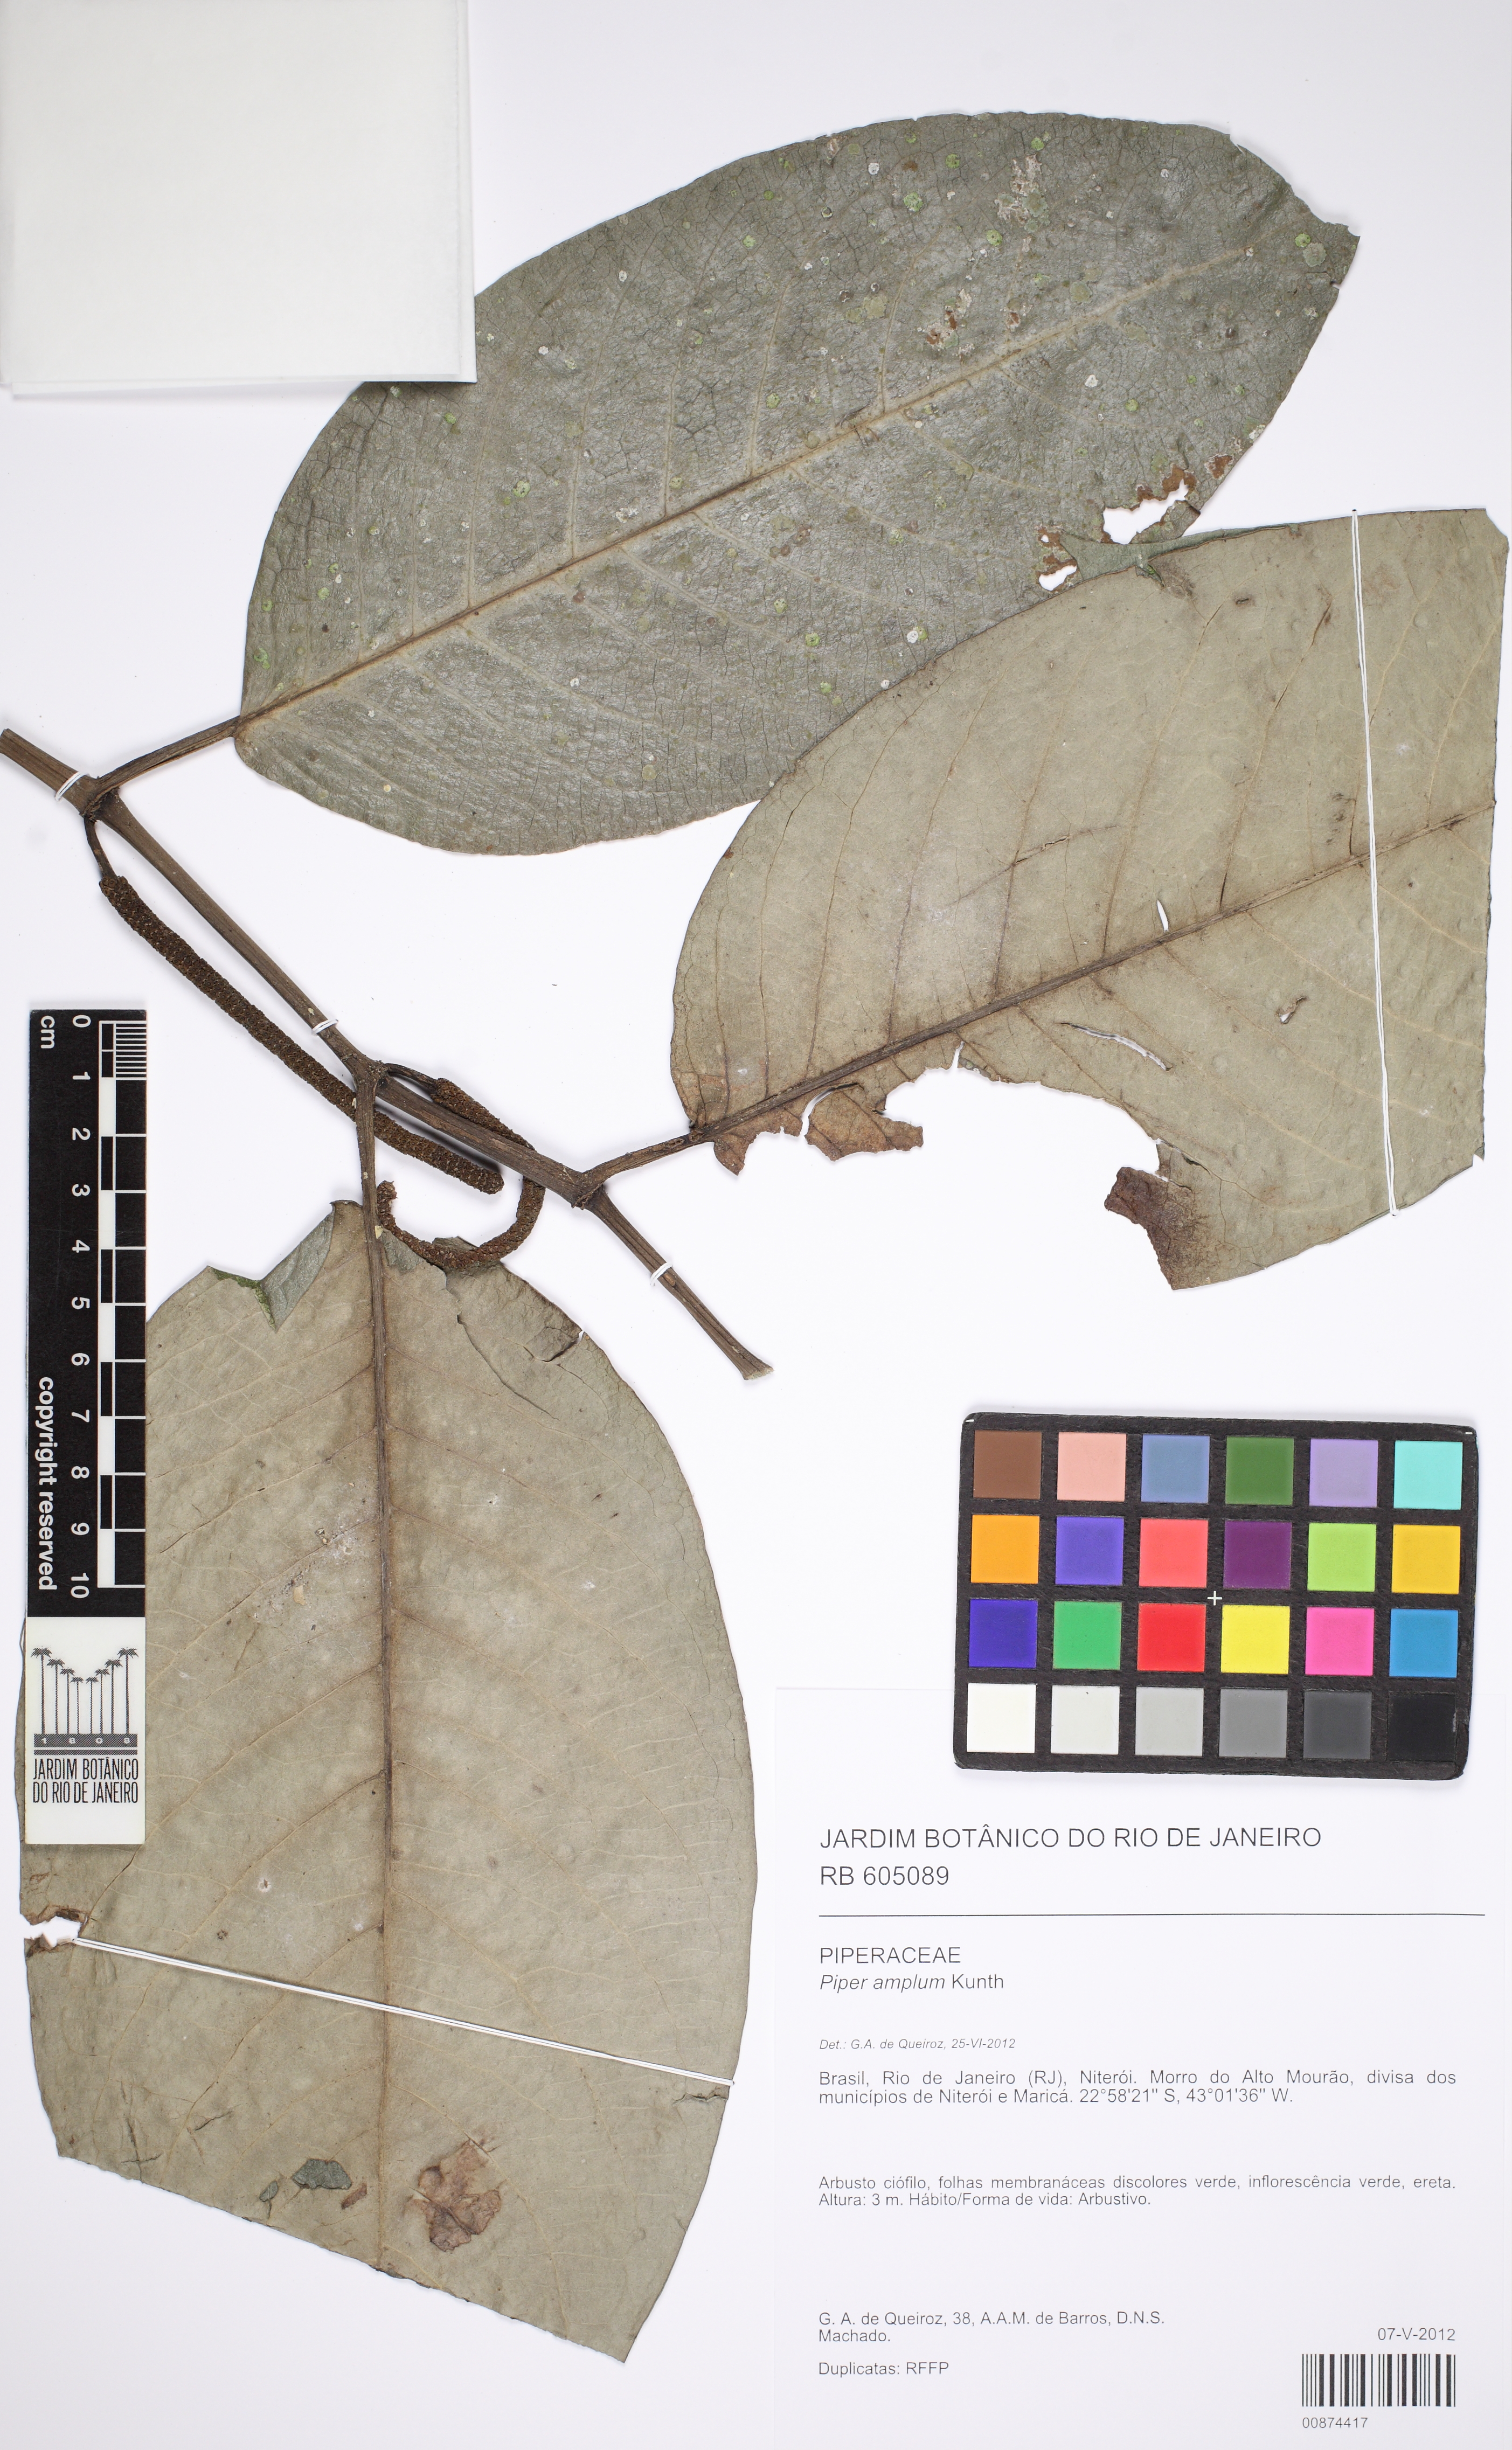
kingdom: Plantae
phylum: Tracheophyta
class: Magnoliopsida
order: Piperales
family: Piperaceae
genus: Piper
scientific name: Piper fluminense
